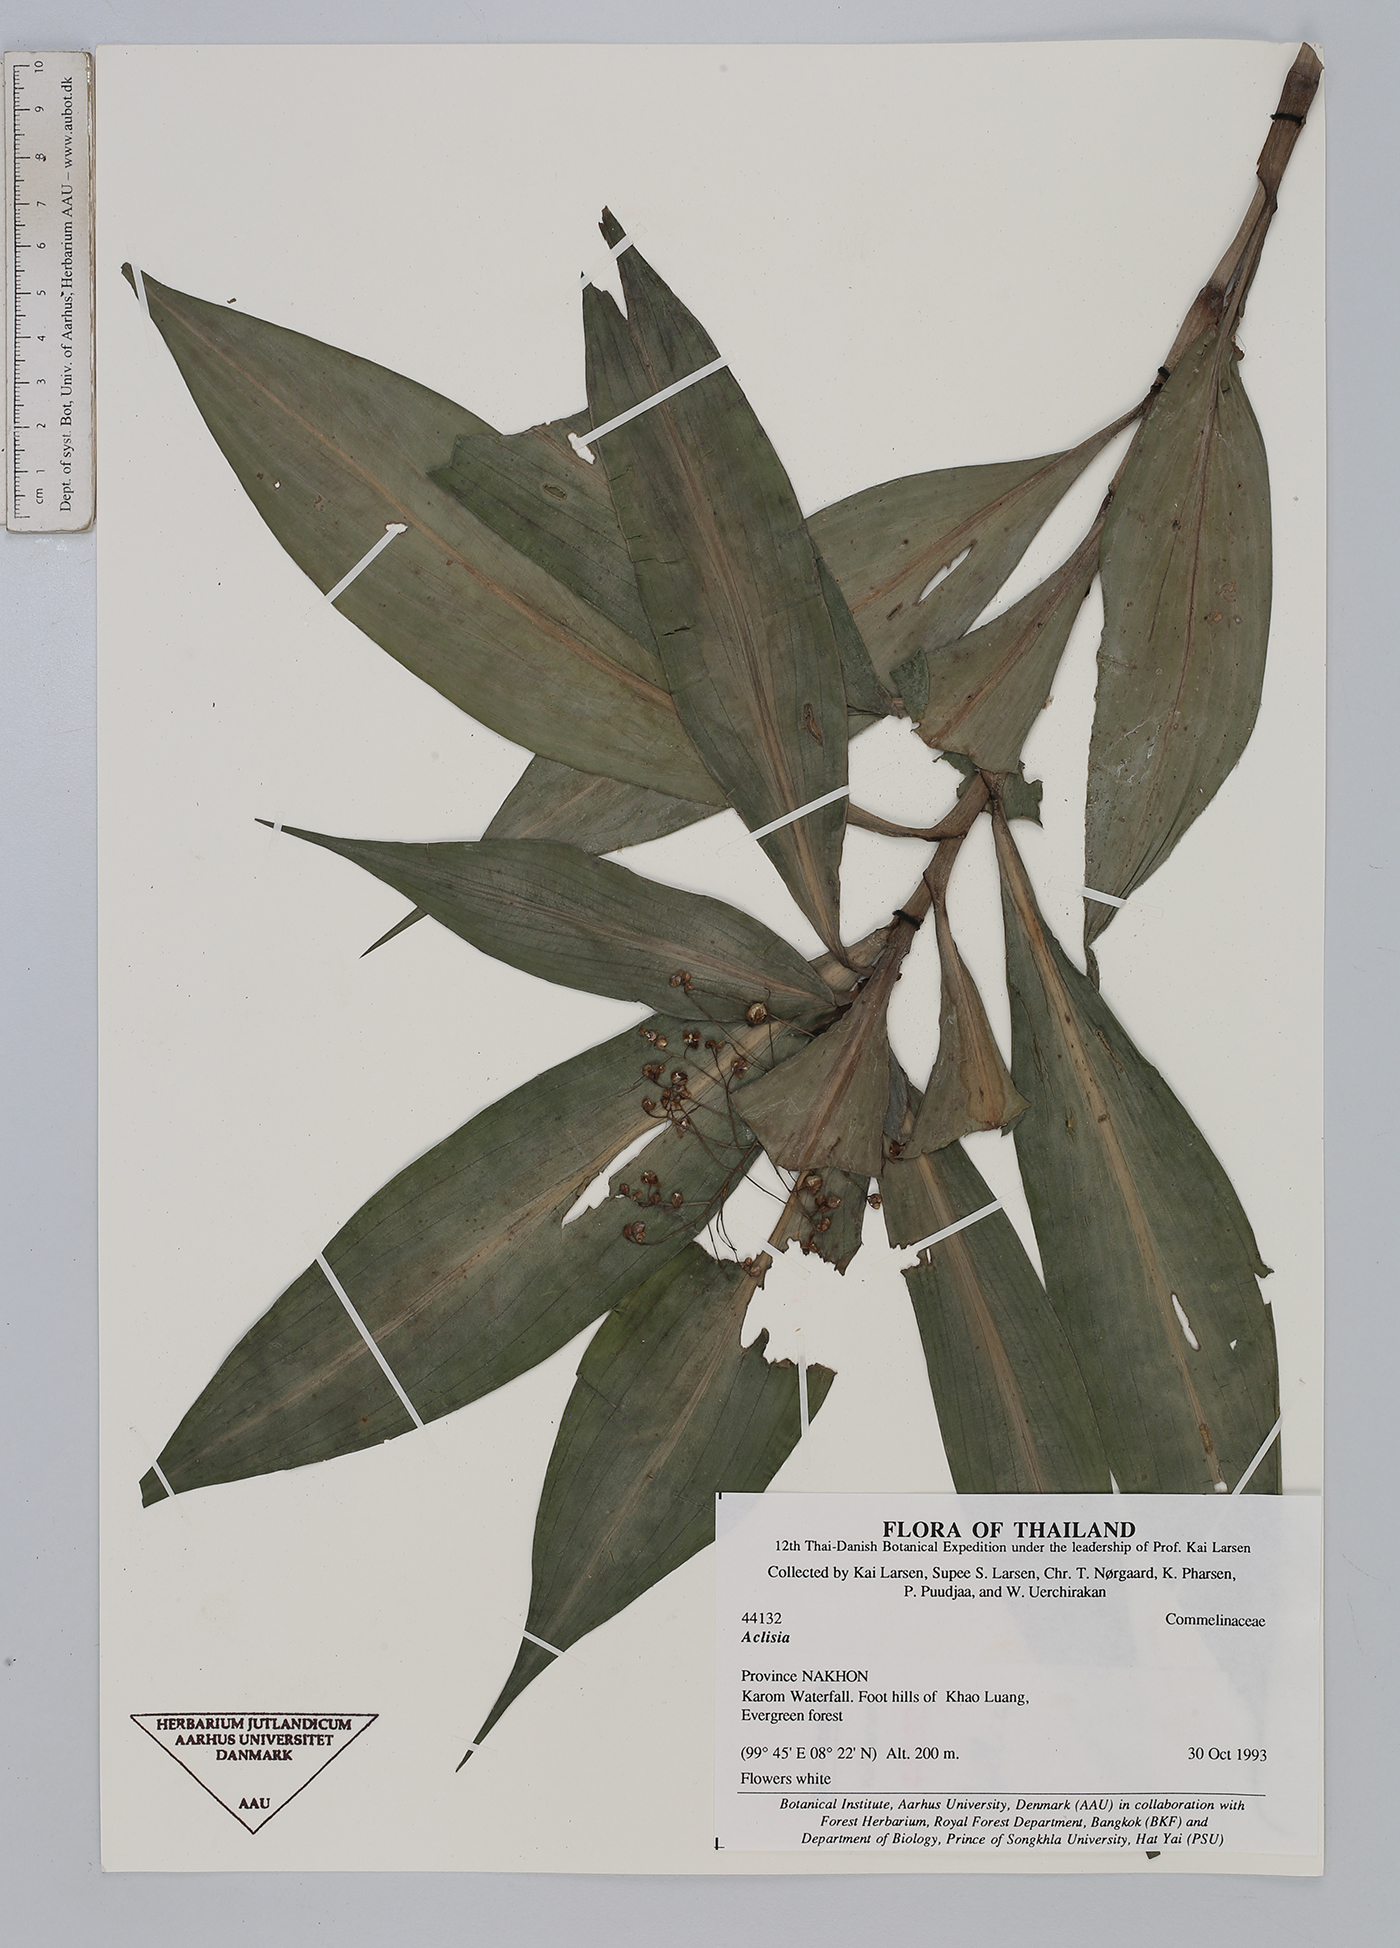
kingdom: Plantae
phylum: Tracheophyta
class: Liliopsida
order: Commelinales
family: Commelinaceae
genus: Pollia
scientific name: Pollia
